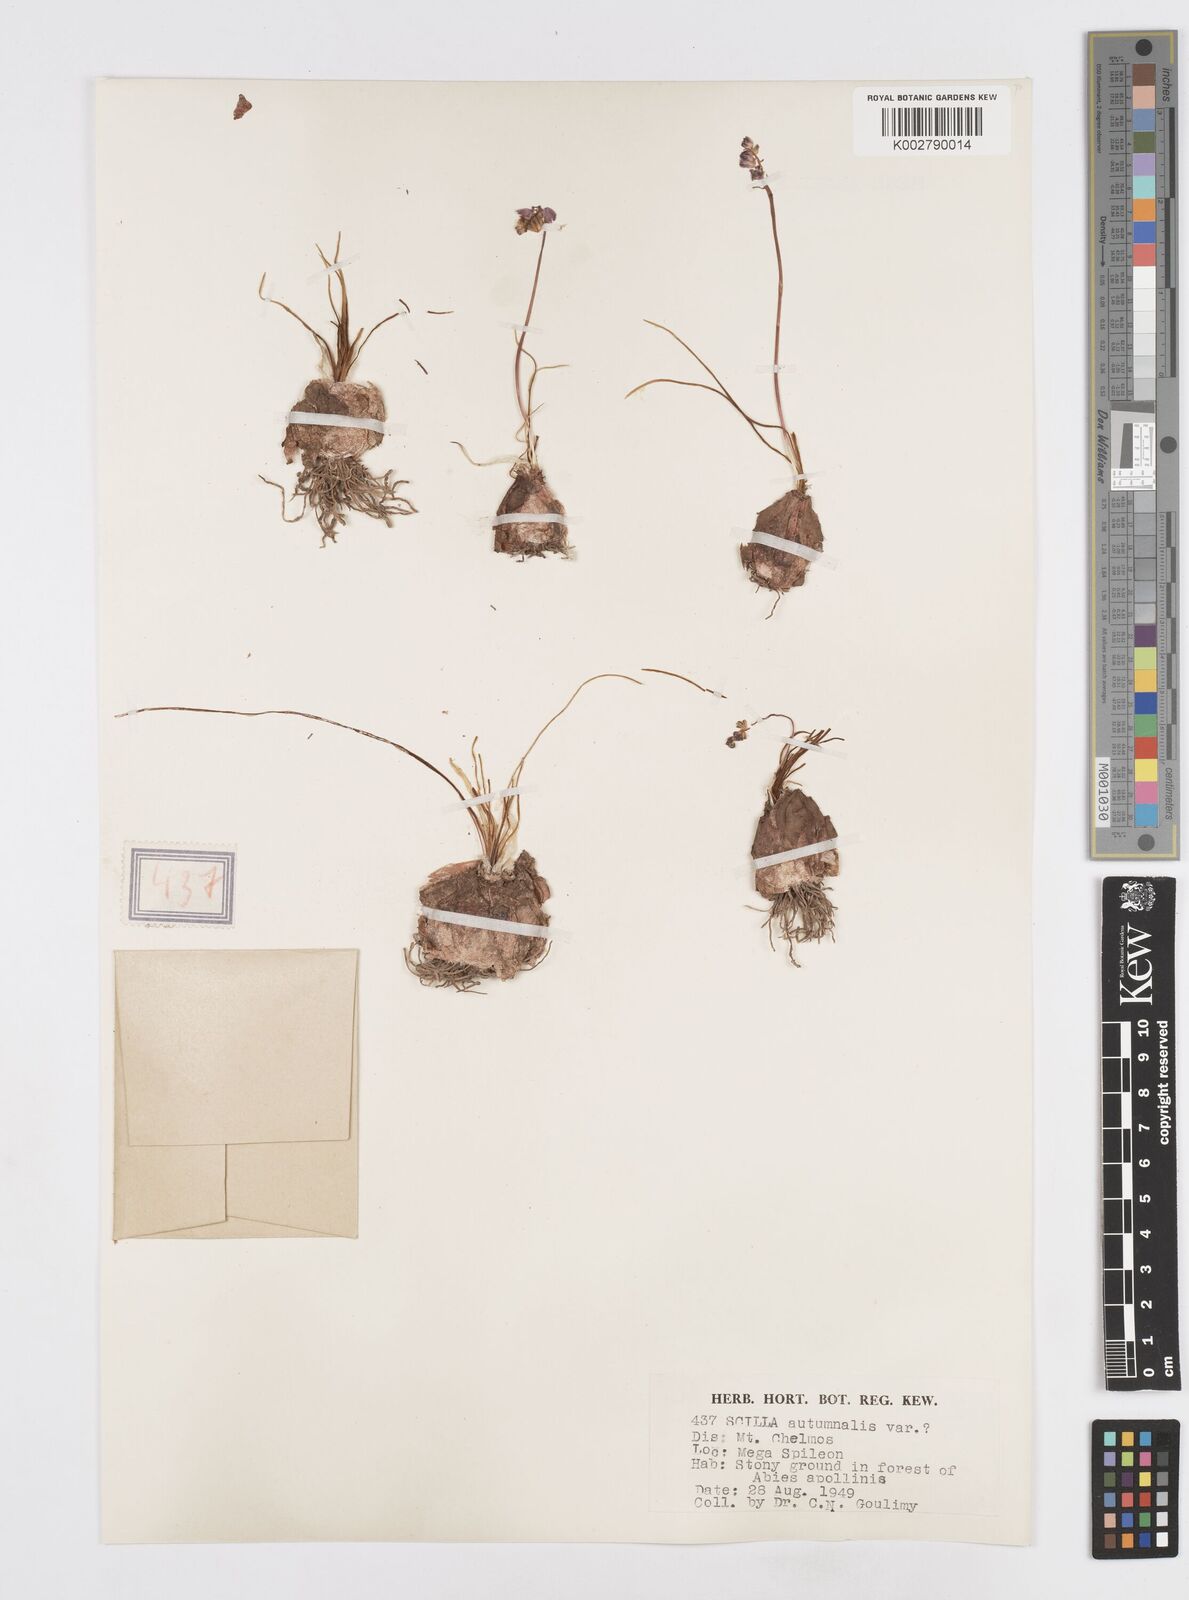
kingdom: Plantae
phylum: Tracheophyta
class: Liliopsida
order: Asparagales
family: Asparagaceae
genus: Prospero
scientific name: Prospero autumnale
